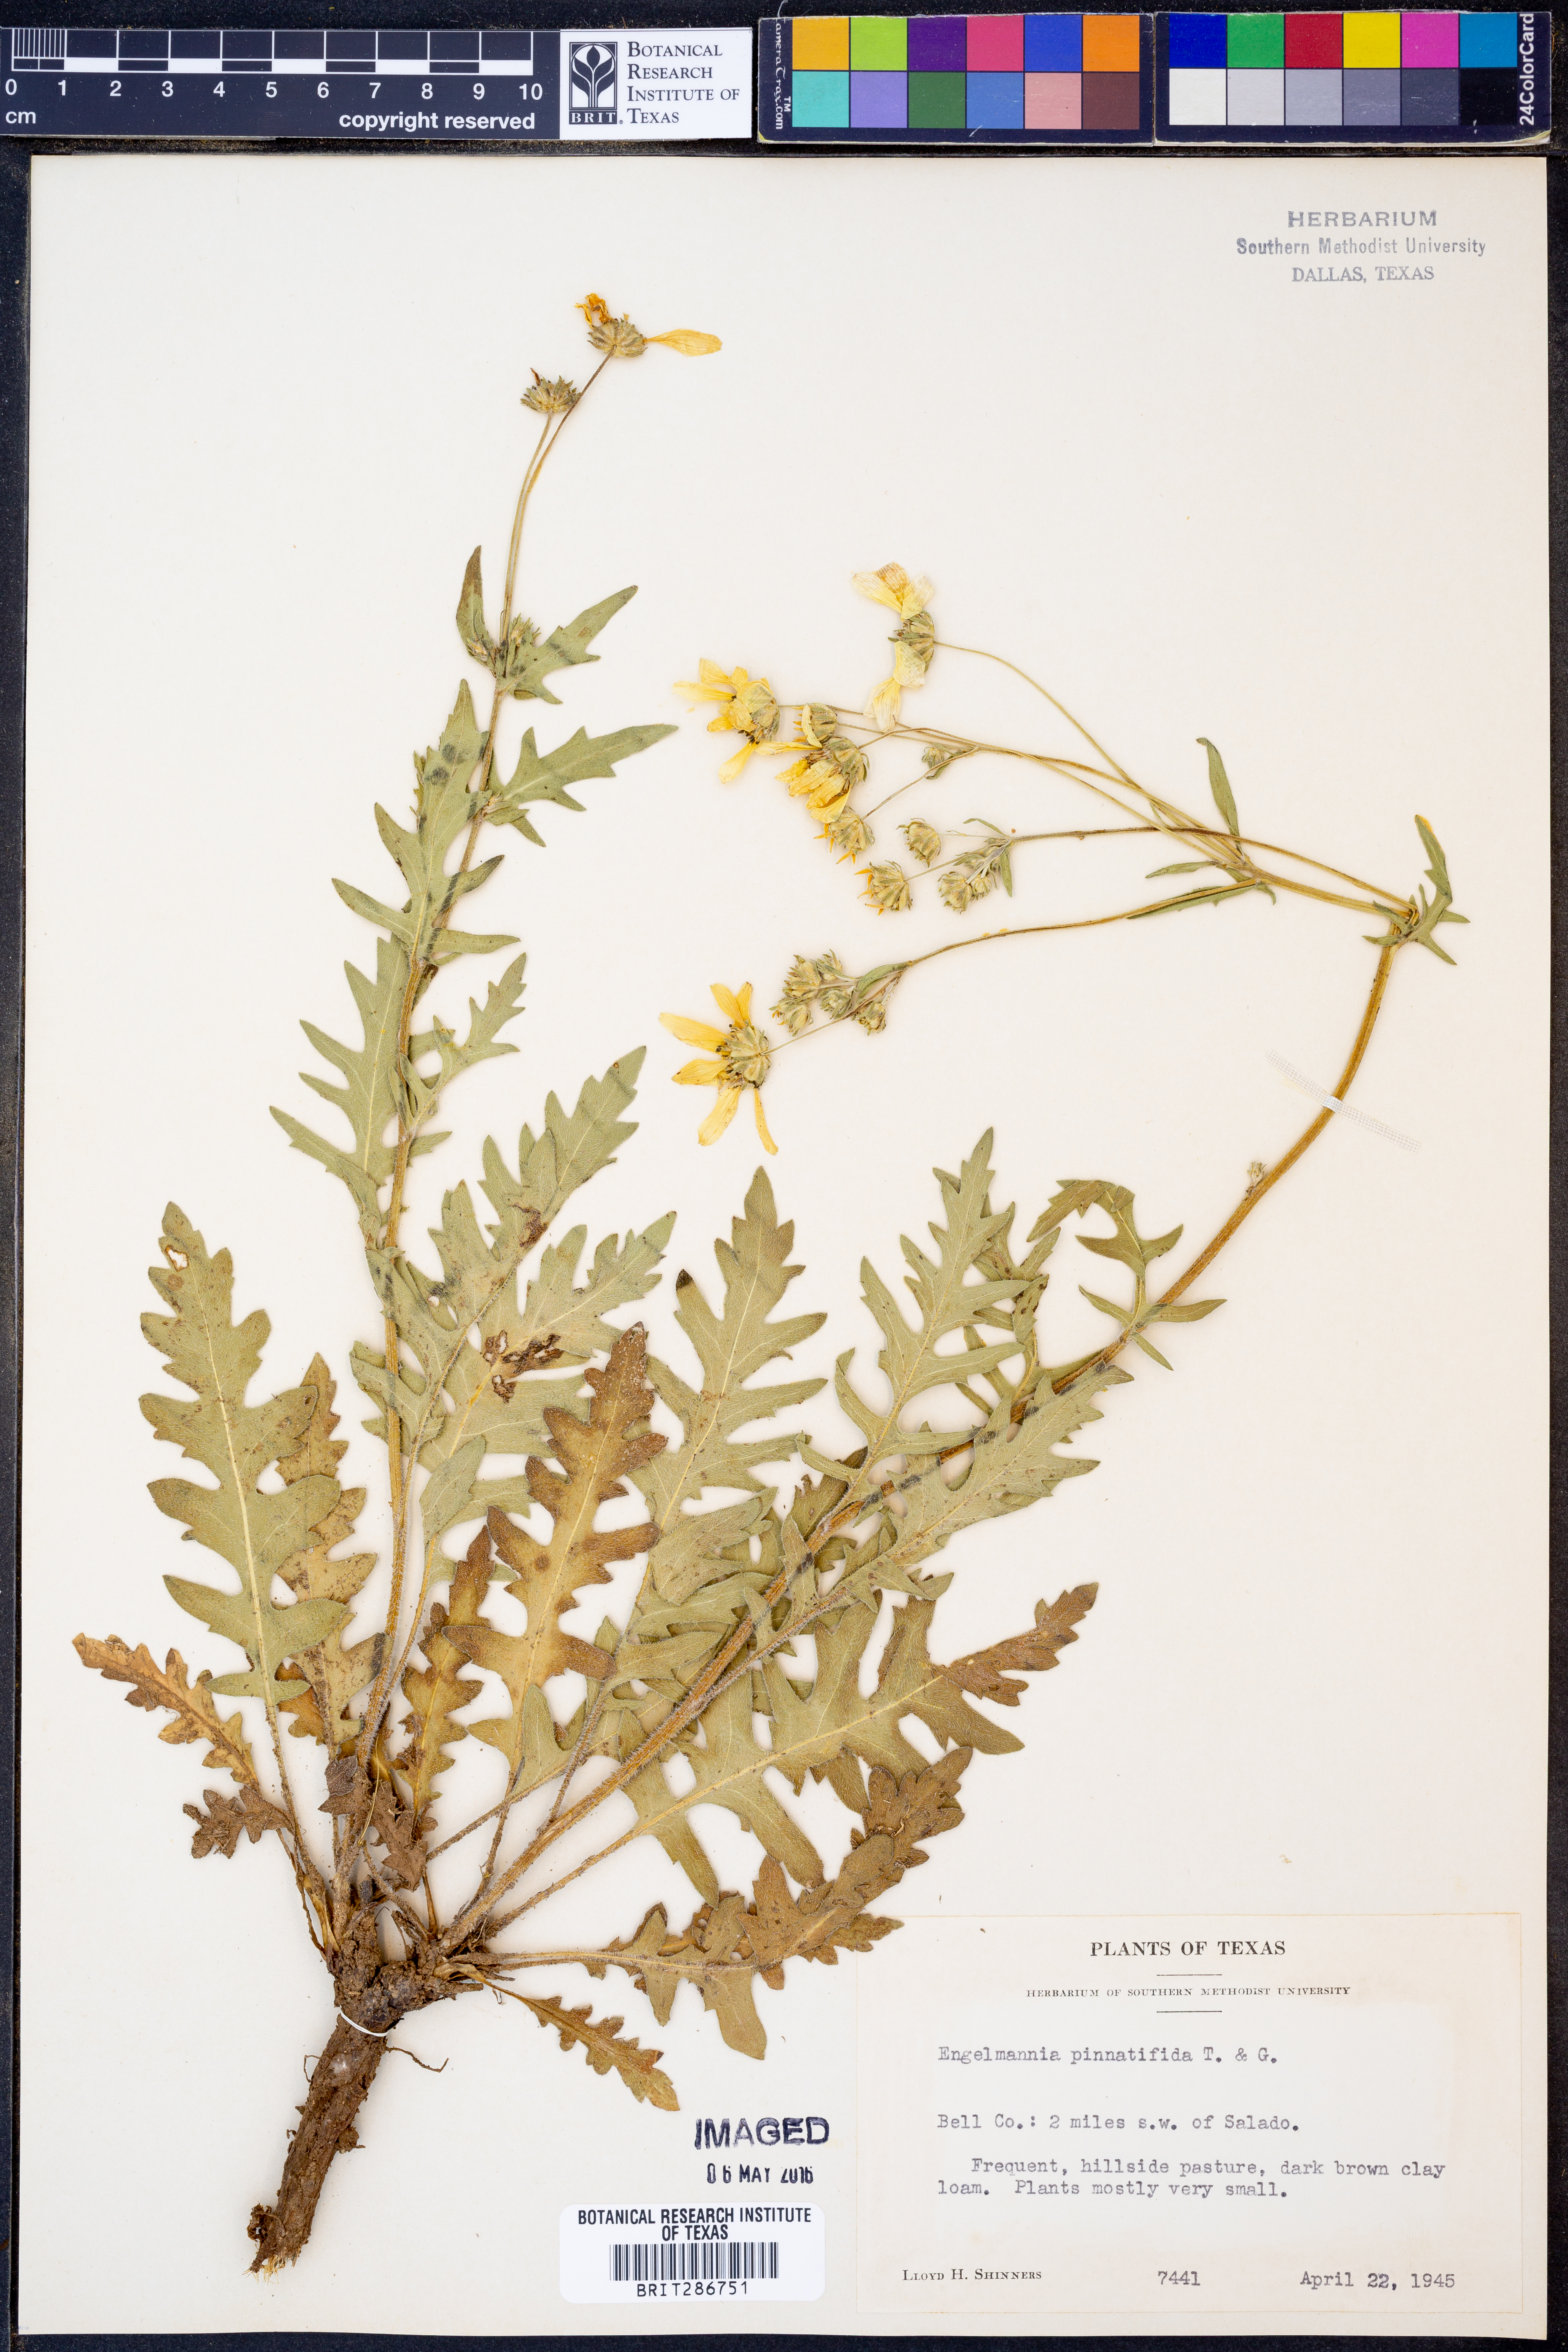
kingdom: Plantae
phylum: Tracheophyta
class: Magnoliopsida
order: Asterales
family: Asteraceae
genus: Engelmannia
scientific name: Engelmannia peristenia
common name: Engelmann's daisy
